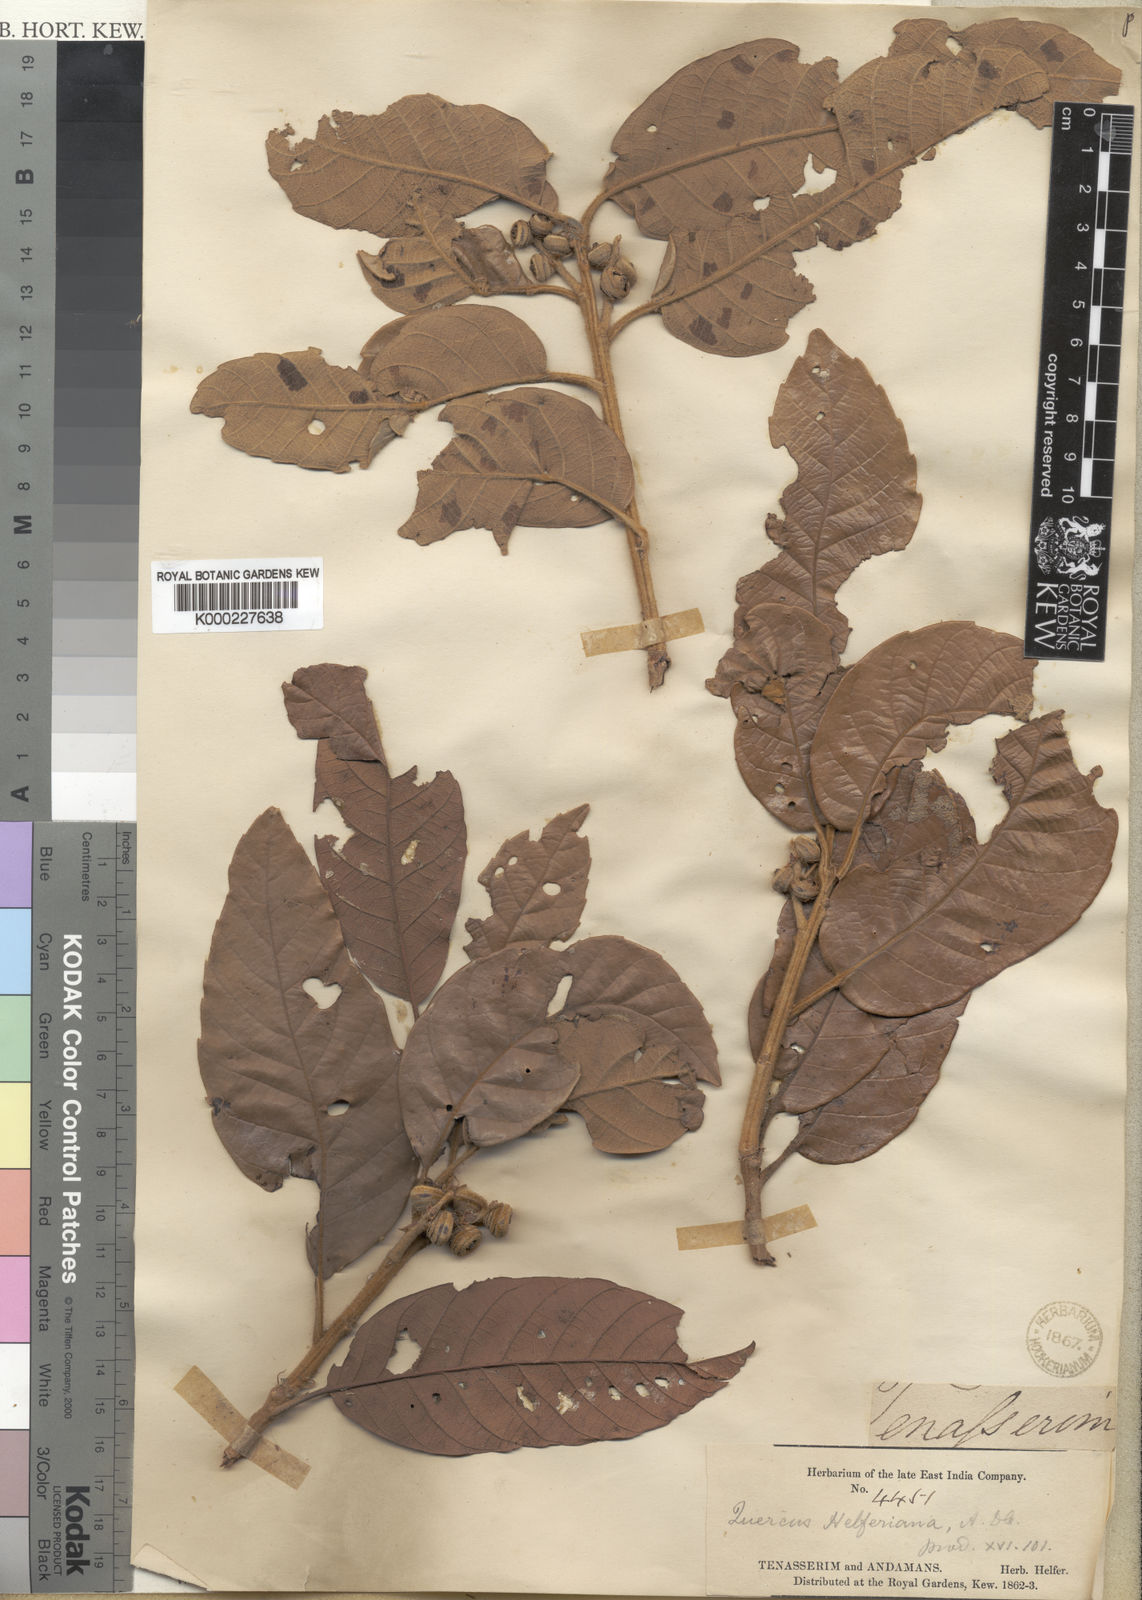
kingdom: Plantae
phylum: Tracheophyta
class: Magnoliopsida
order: Fagales
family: Fagaceae
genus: Quercus
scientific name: Quercus helferiana
